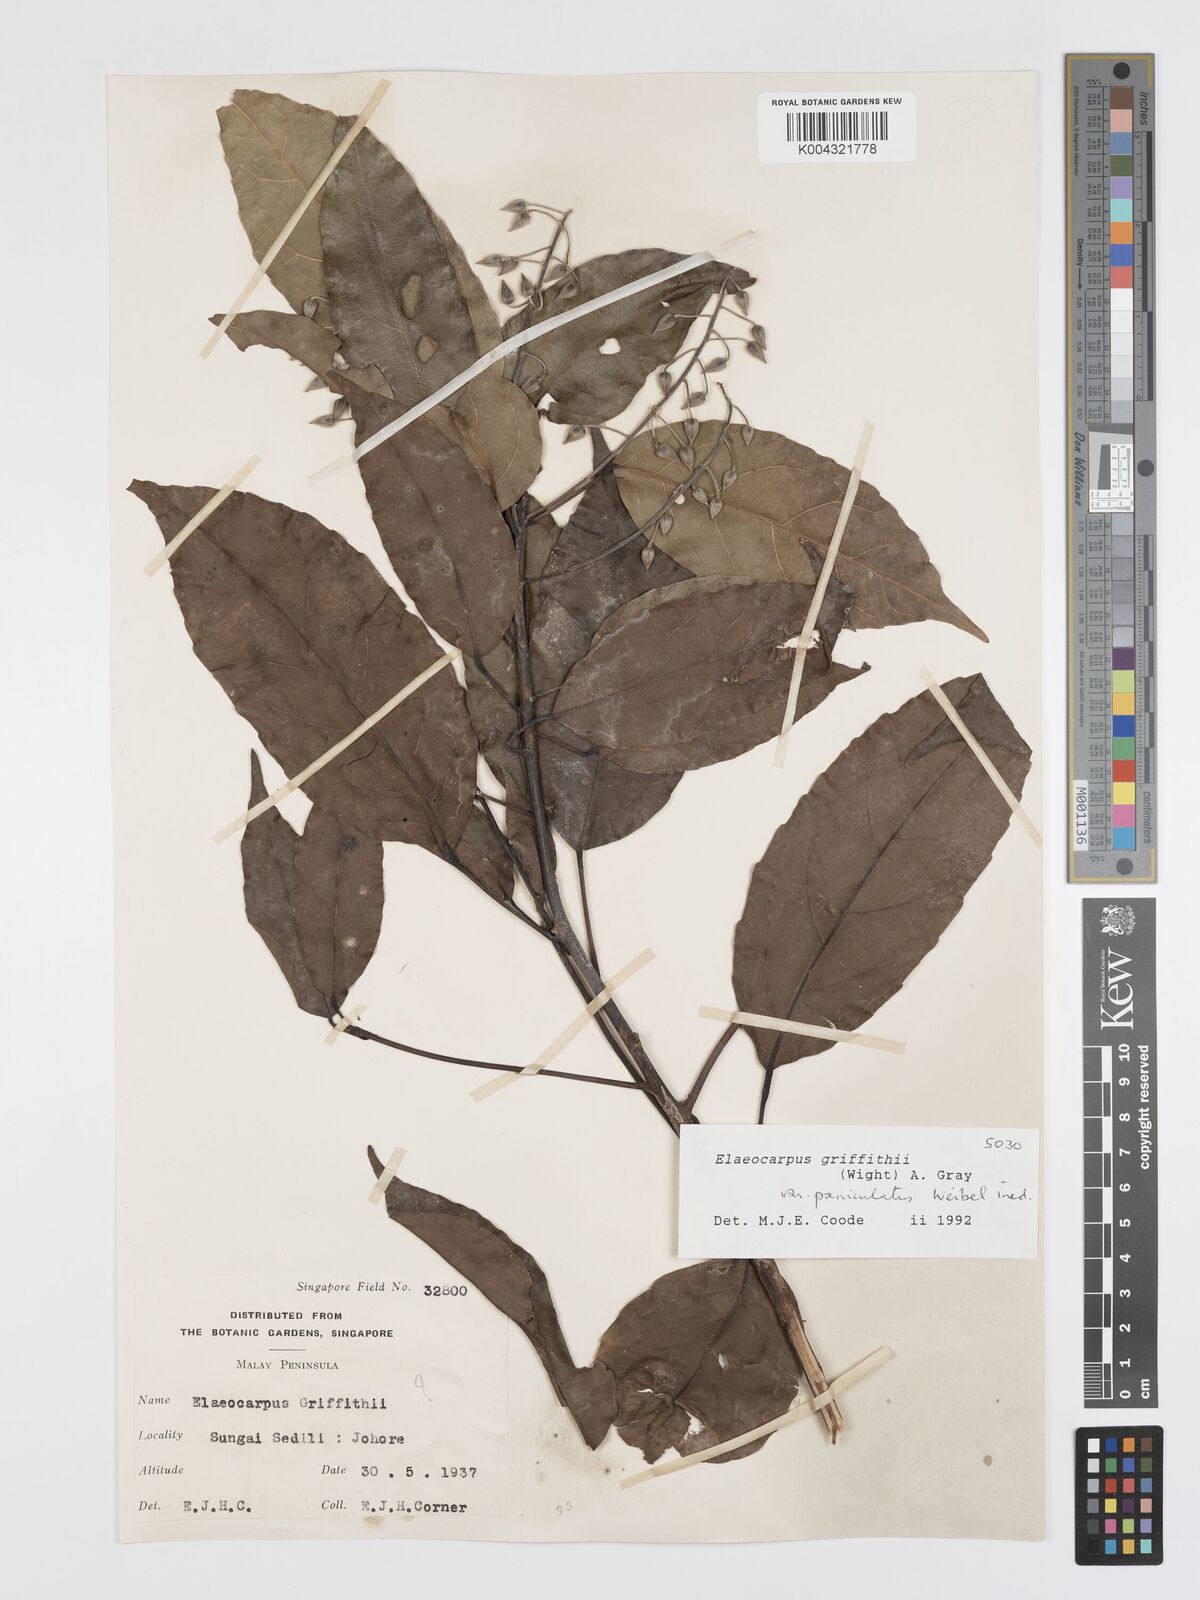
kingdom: Plantae
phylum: Tracheophyta
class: Magnoliopsida
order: Oxalidales
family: Elaeocarpaceae
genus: Elaeocarpus
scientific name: Elaeocarpus griffithii
